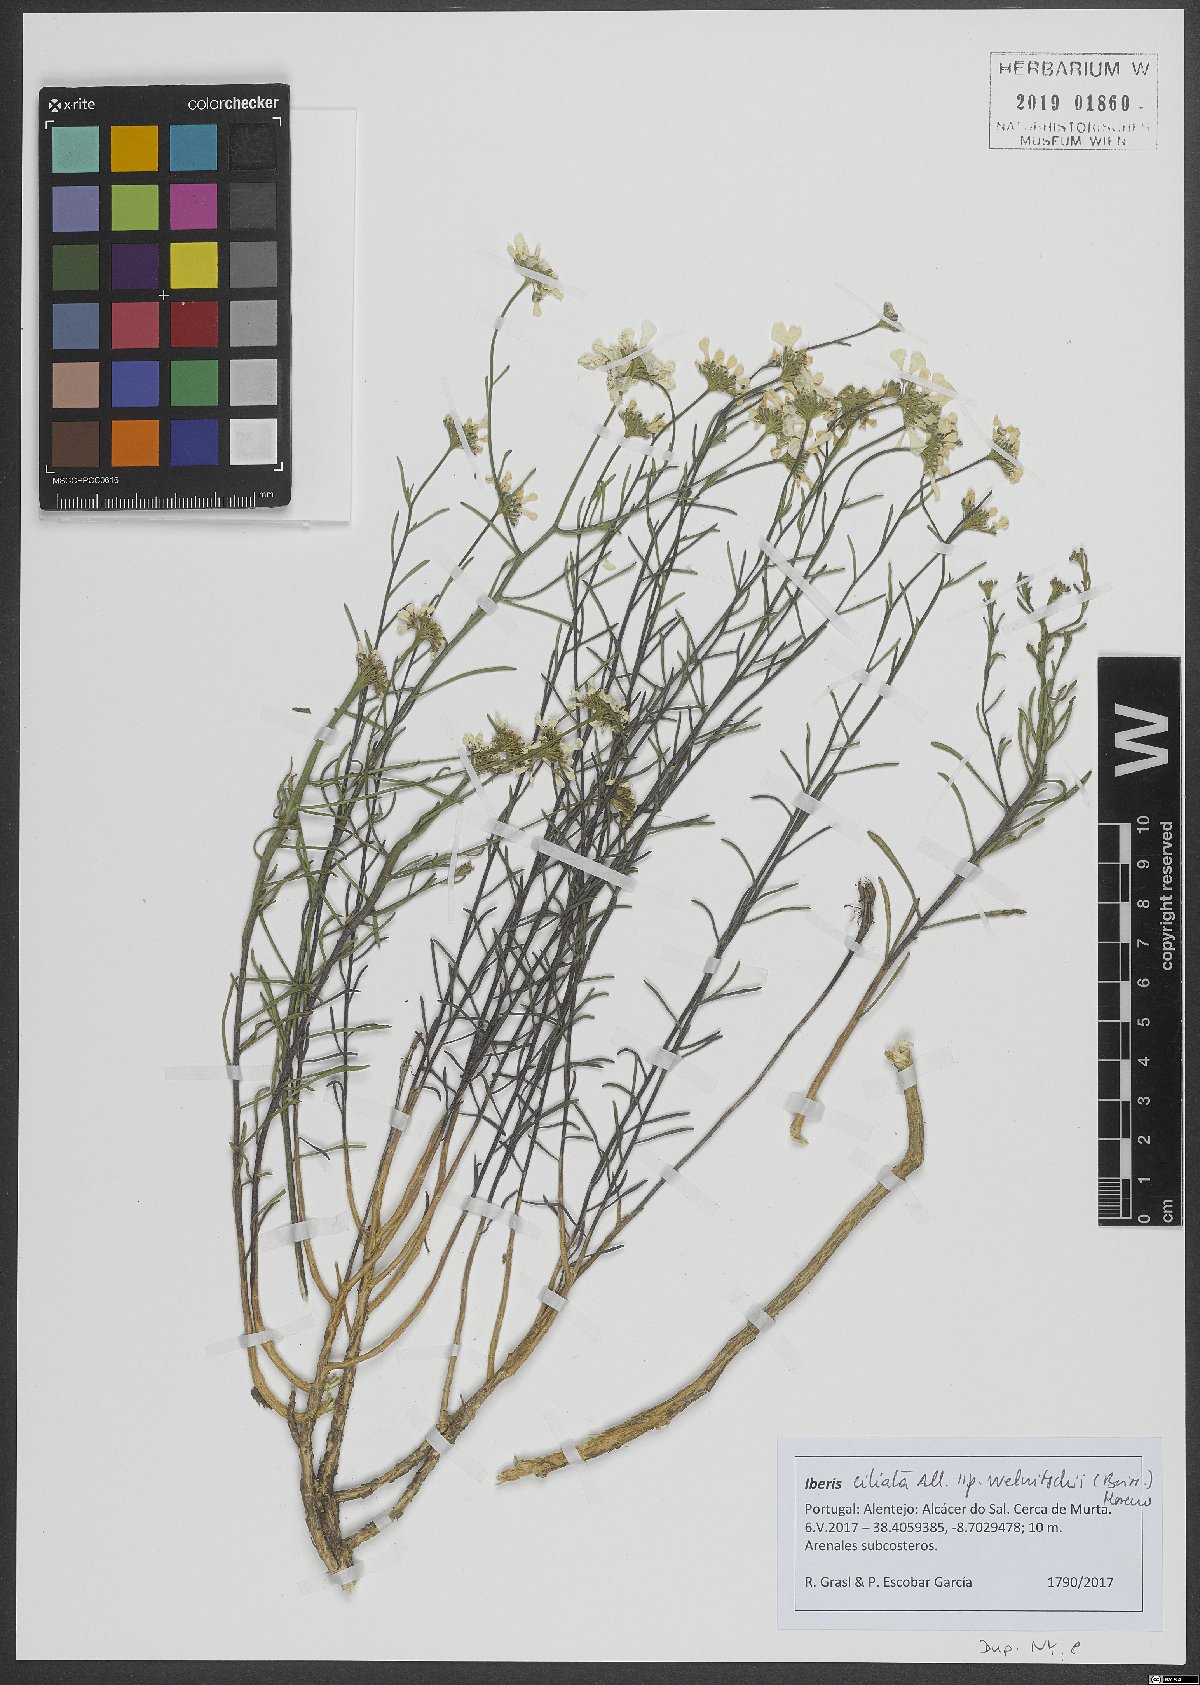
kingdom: Plantae
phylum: Tracheophyta
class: Magnoliopsida
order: Brassicales
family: Brassicaceae
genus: Iberis
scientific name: Iberis ciliata
